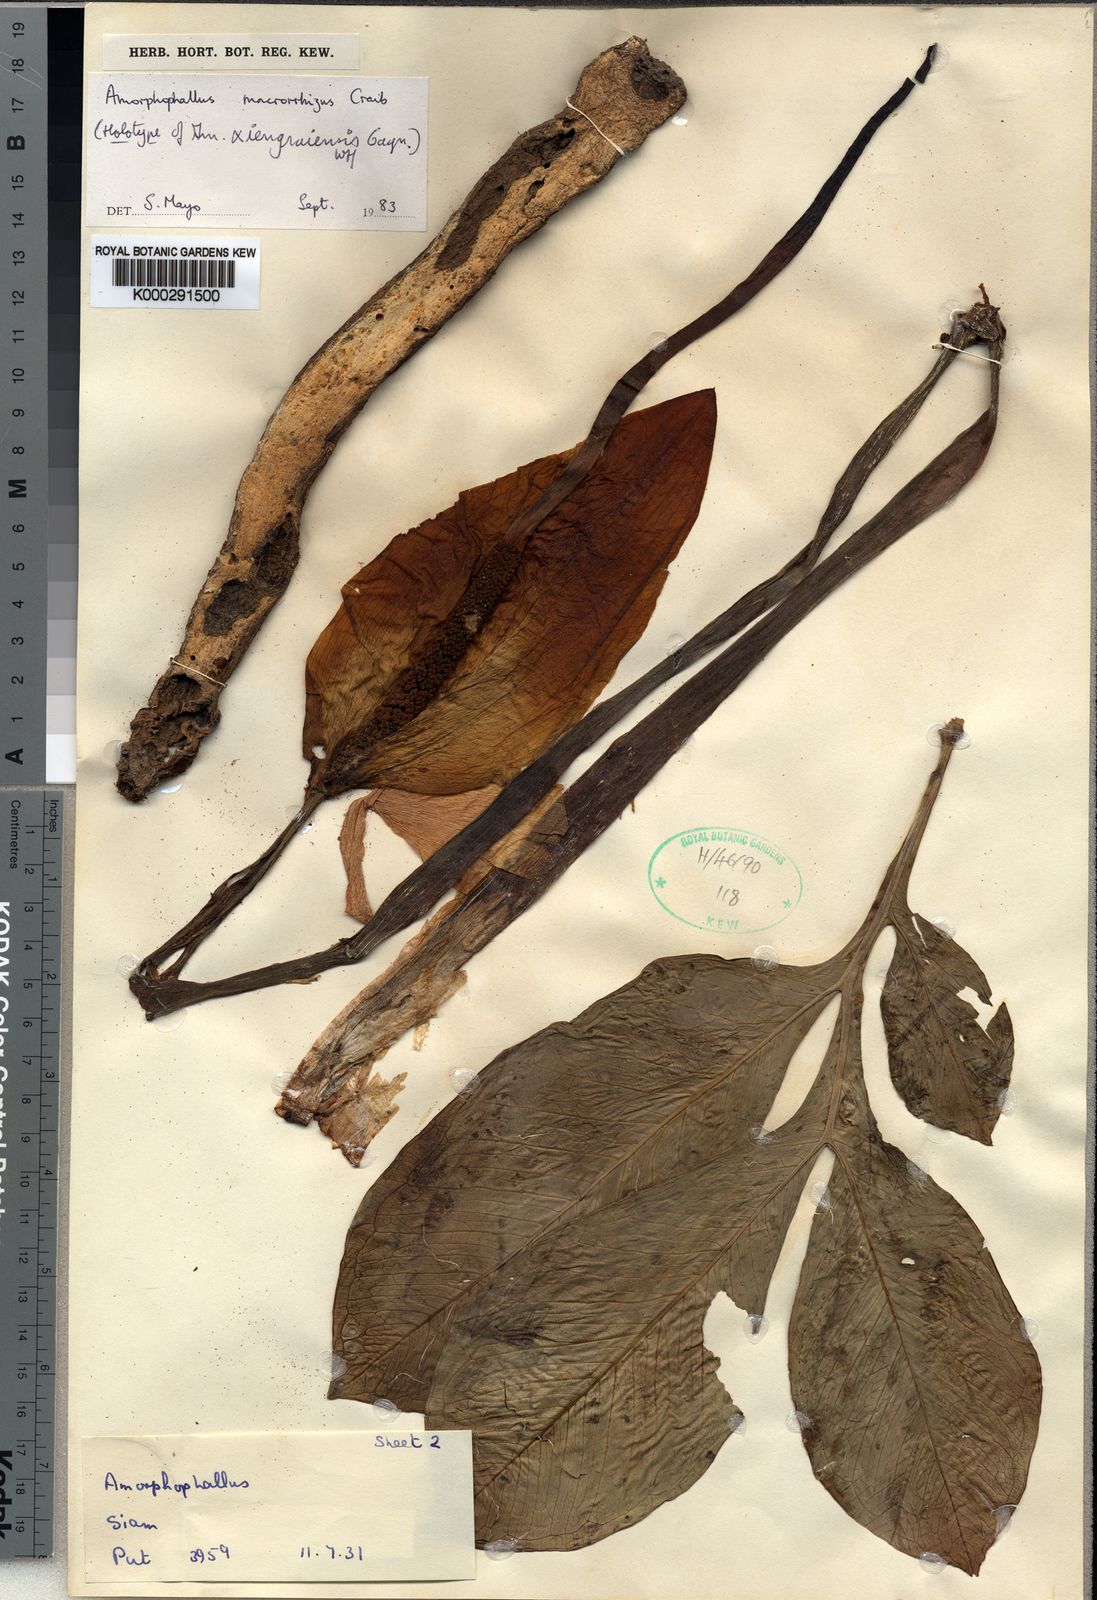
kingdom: Plantae
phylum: Tracheophyta
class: Liliopsida
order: Alismatales
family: Araceae
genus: Amorphophallus
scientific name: Amorphophallus macrorhizus
